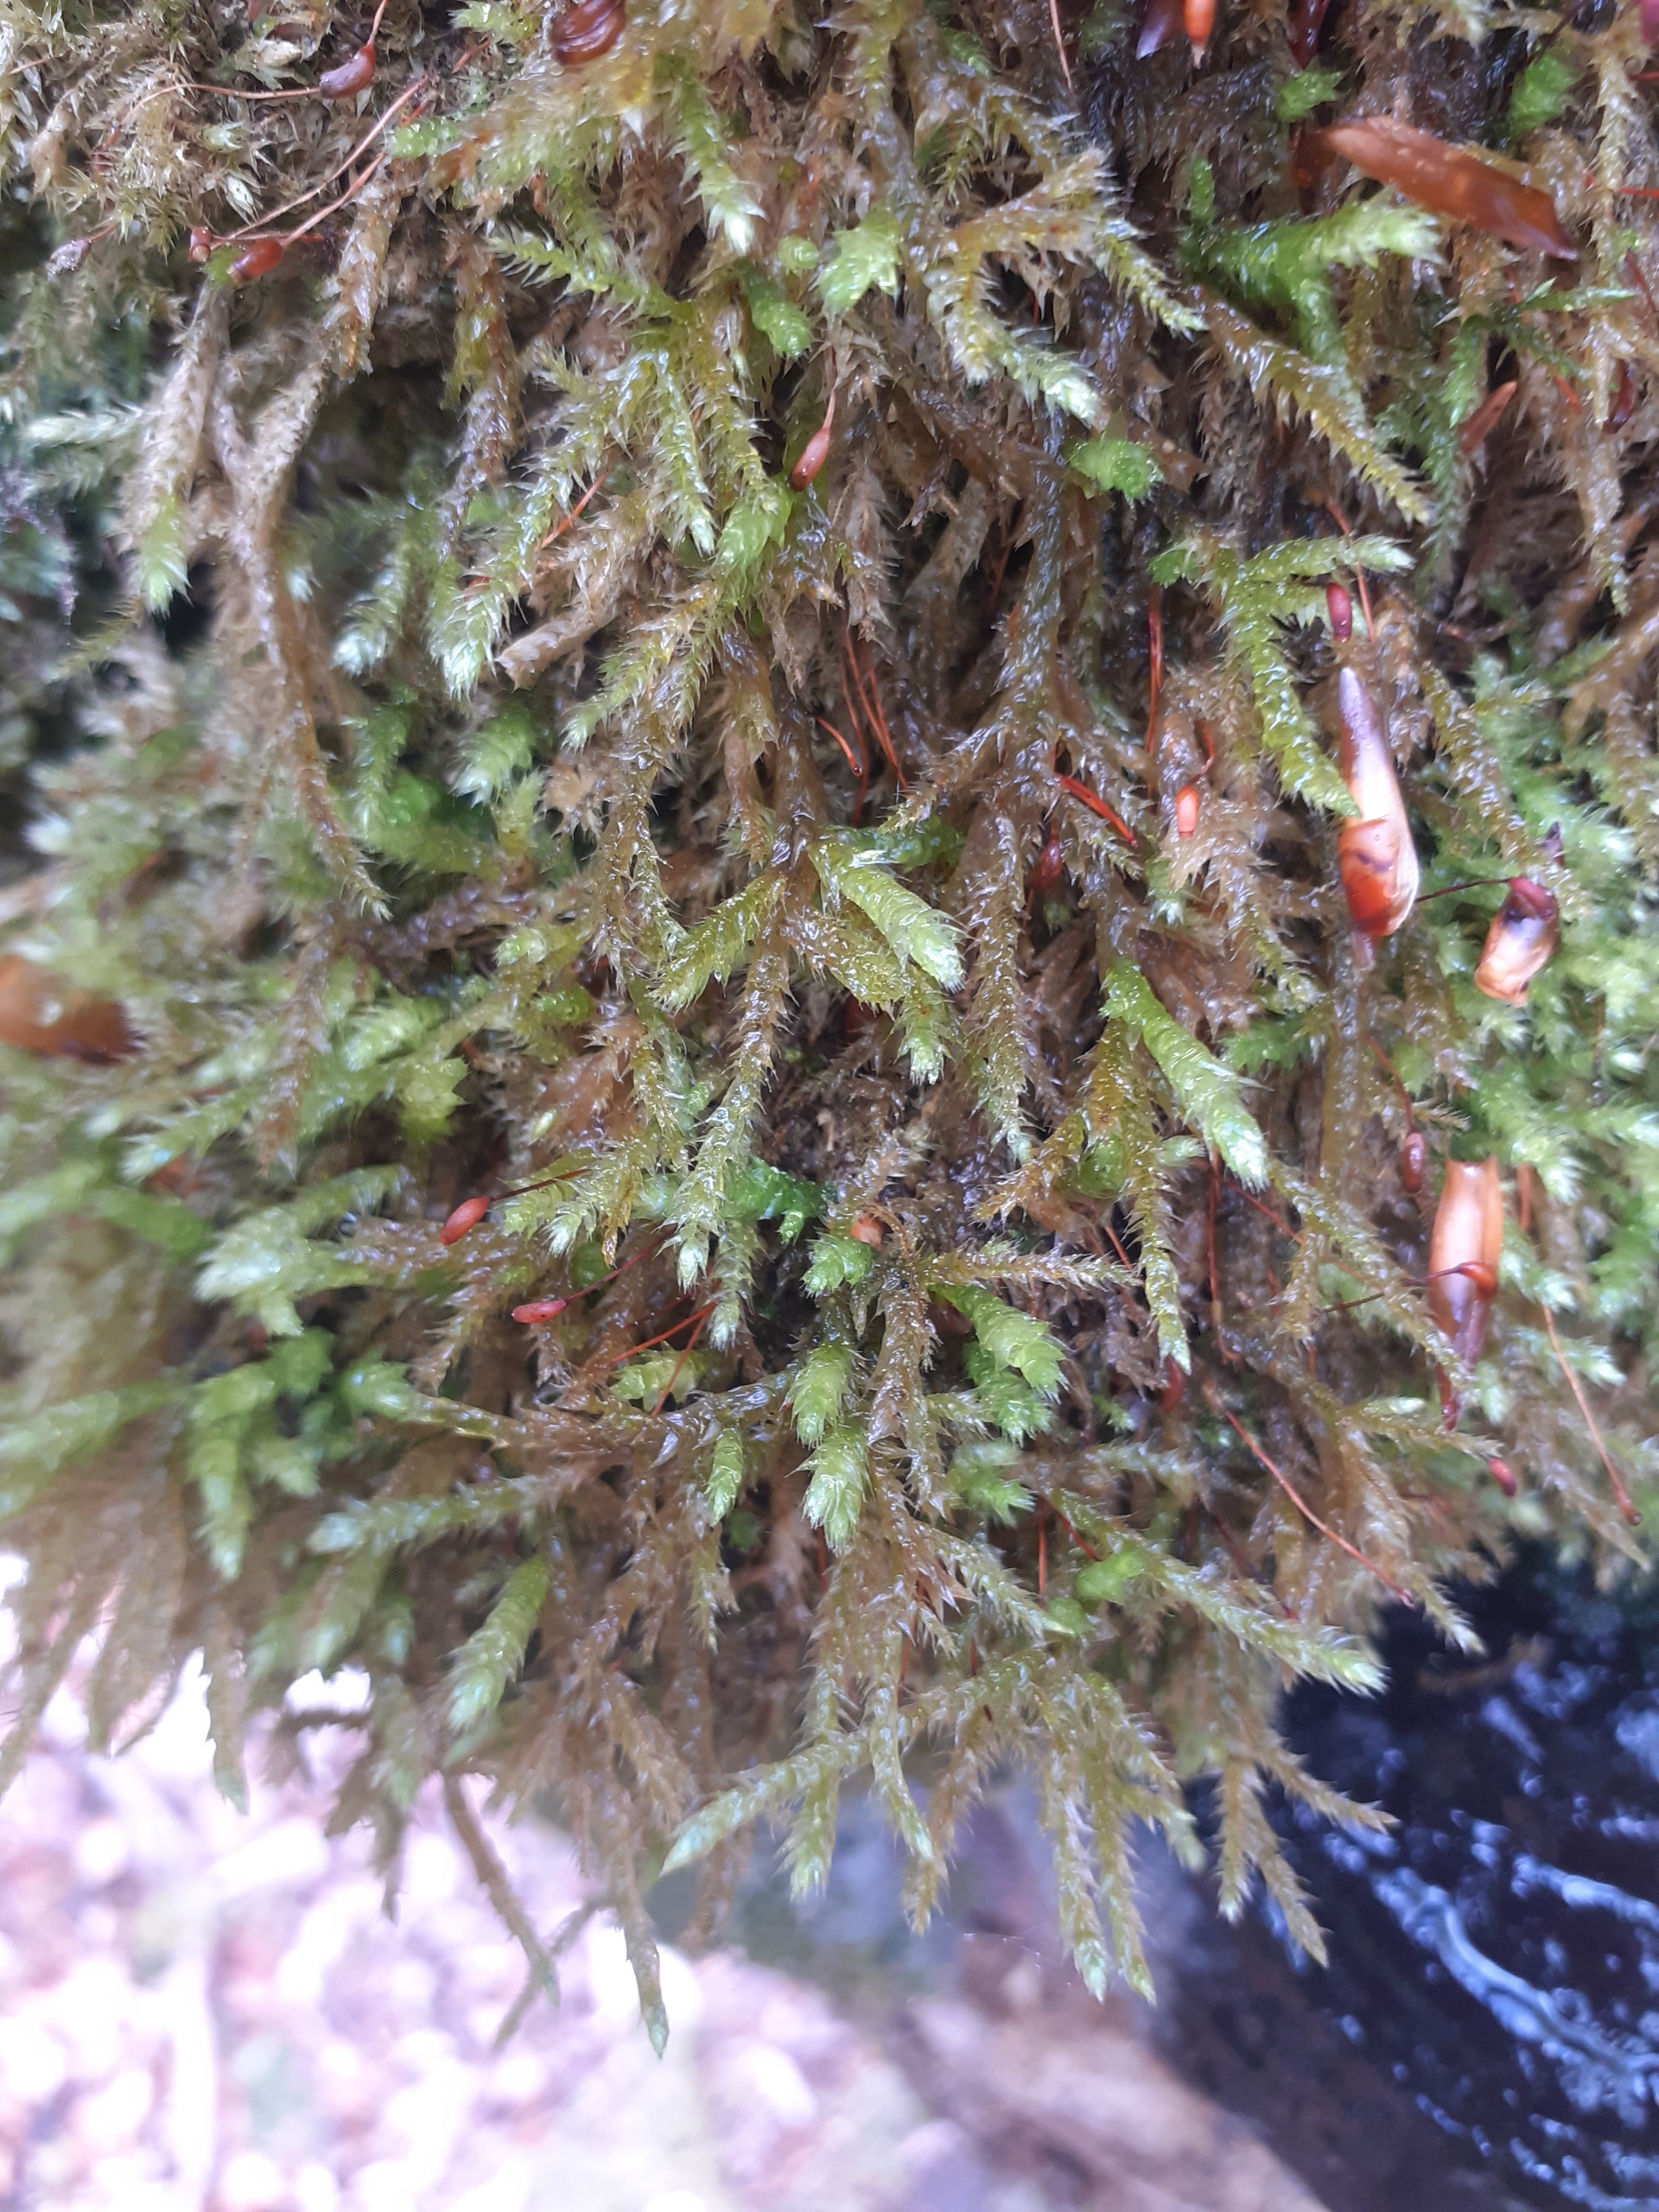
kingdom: Plantae
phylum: Bryophyta
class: Bryopsida
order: Hypnales
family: Brachytheciaceae
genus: Brachythecium
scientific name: Brachythecium
